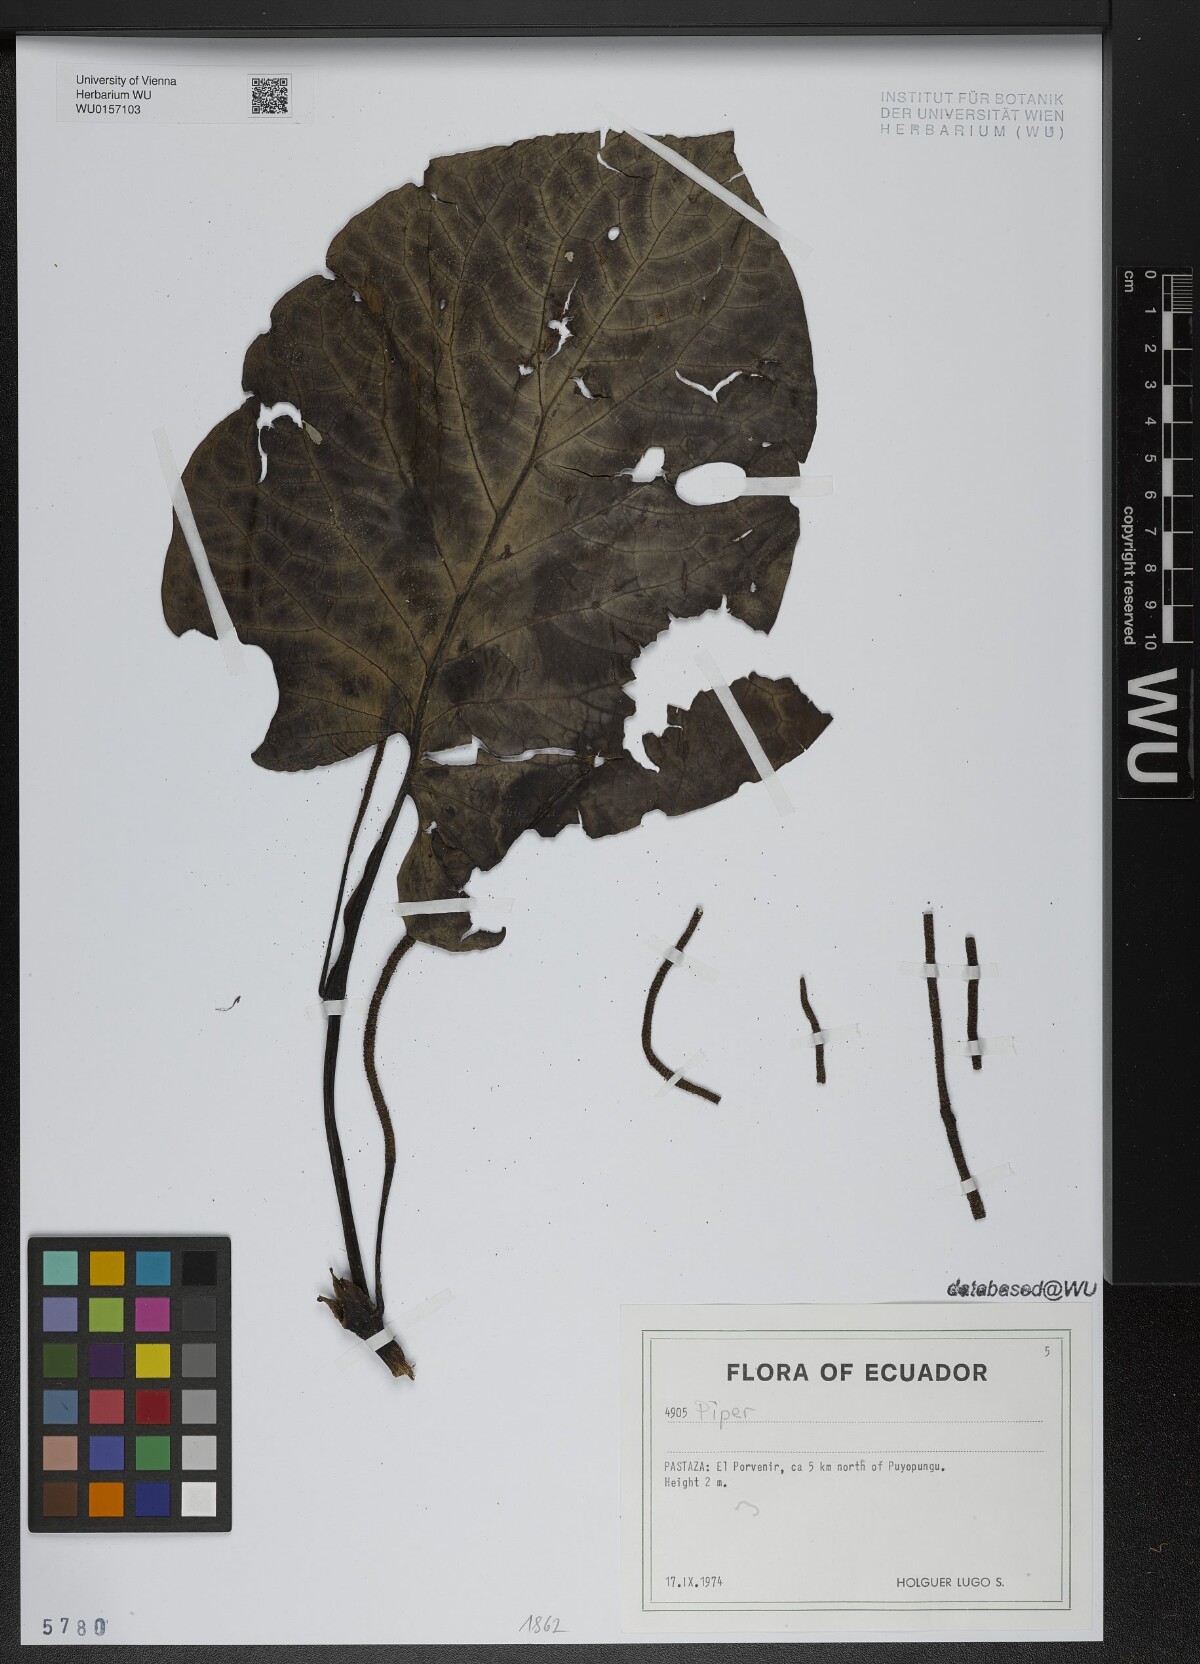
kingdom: Plantae
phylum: Tracheophyta
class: Magnoliopsida
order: Piperales
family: Piperaceae
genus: Piper
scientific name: Piper
